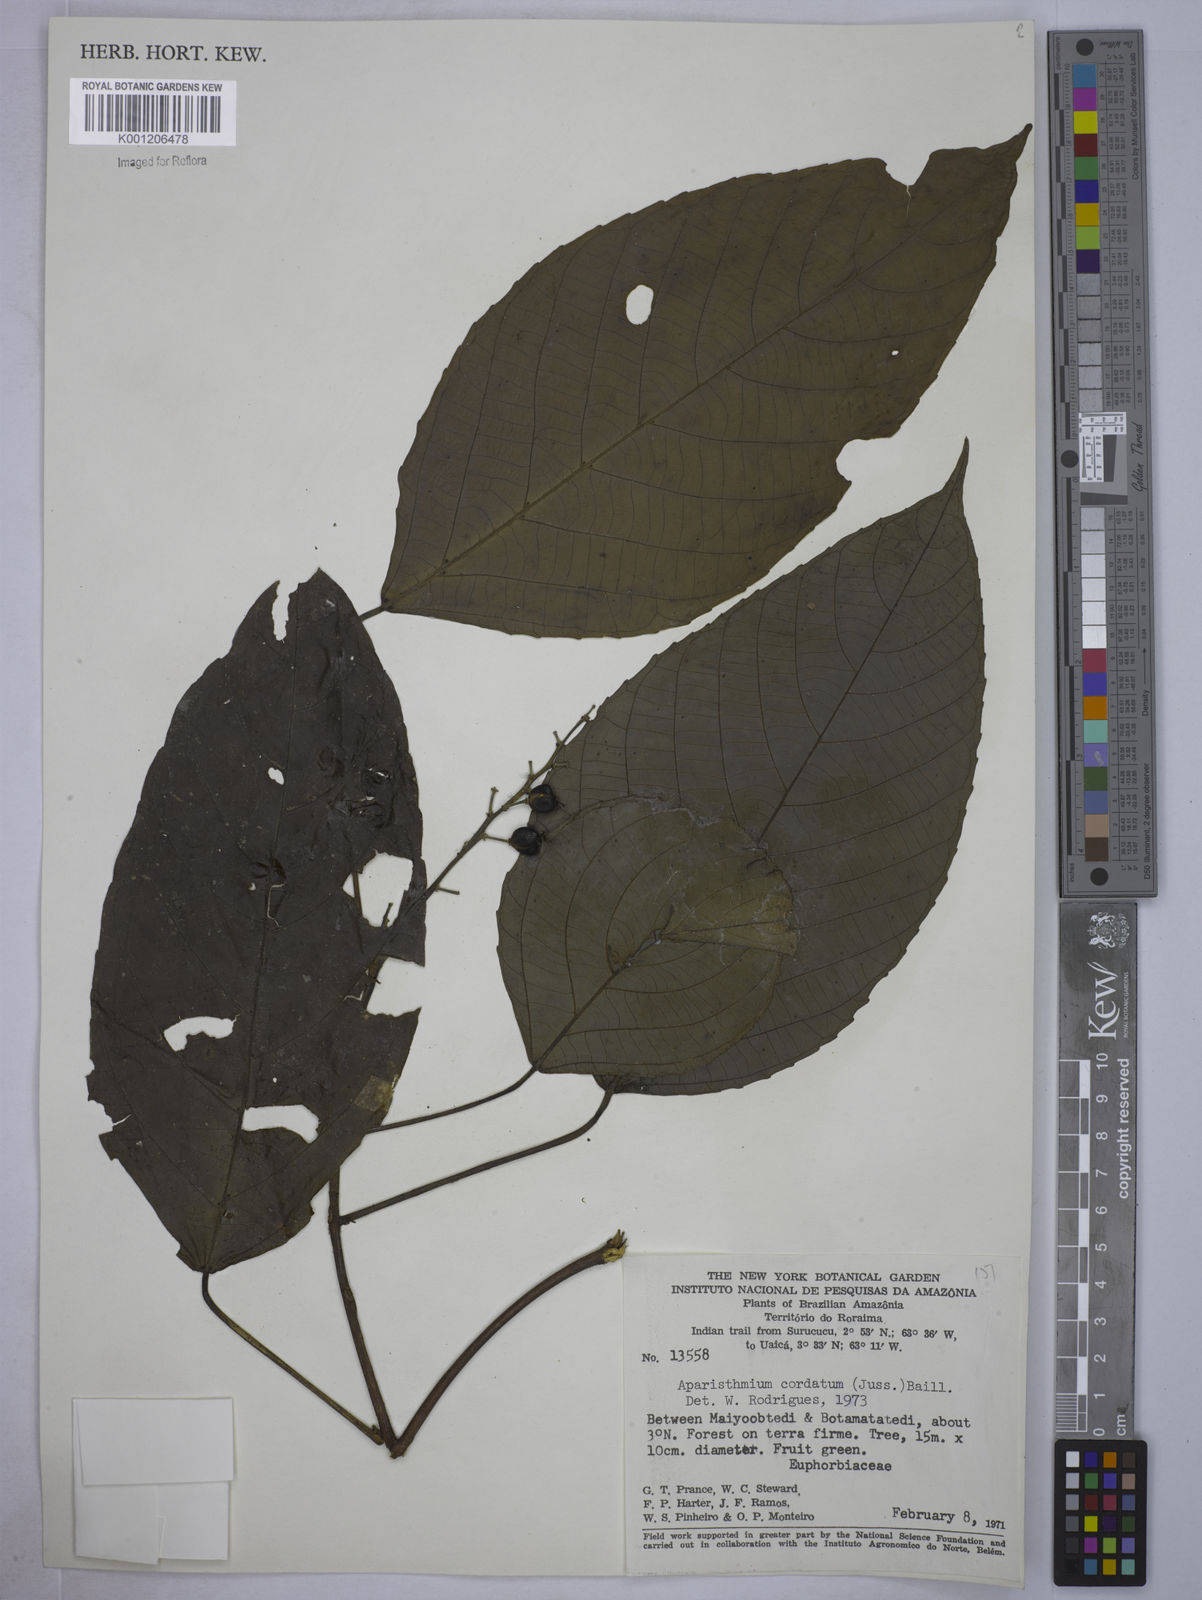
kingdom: Plantae
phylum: Tracheophyta
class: Magnoliopsida
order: Malpighiales
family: Euphorbiaceae
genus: Aparisthmium
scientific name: Aparisthmium cordatum
